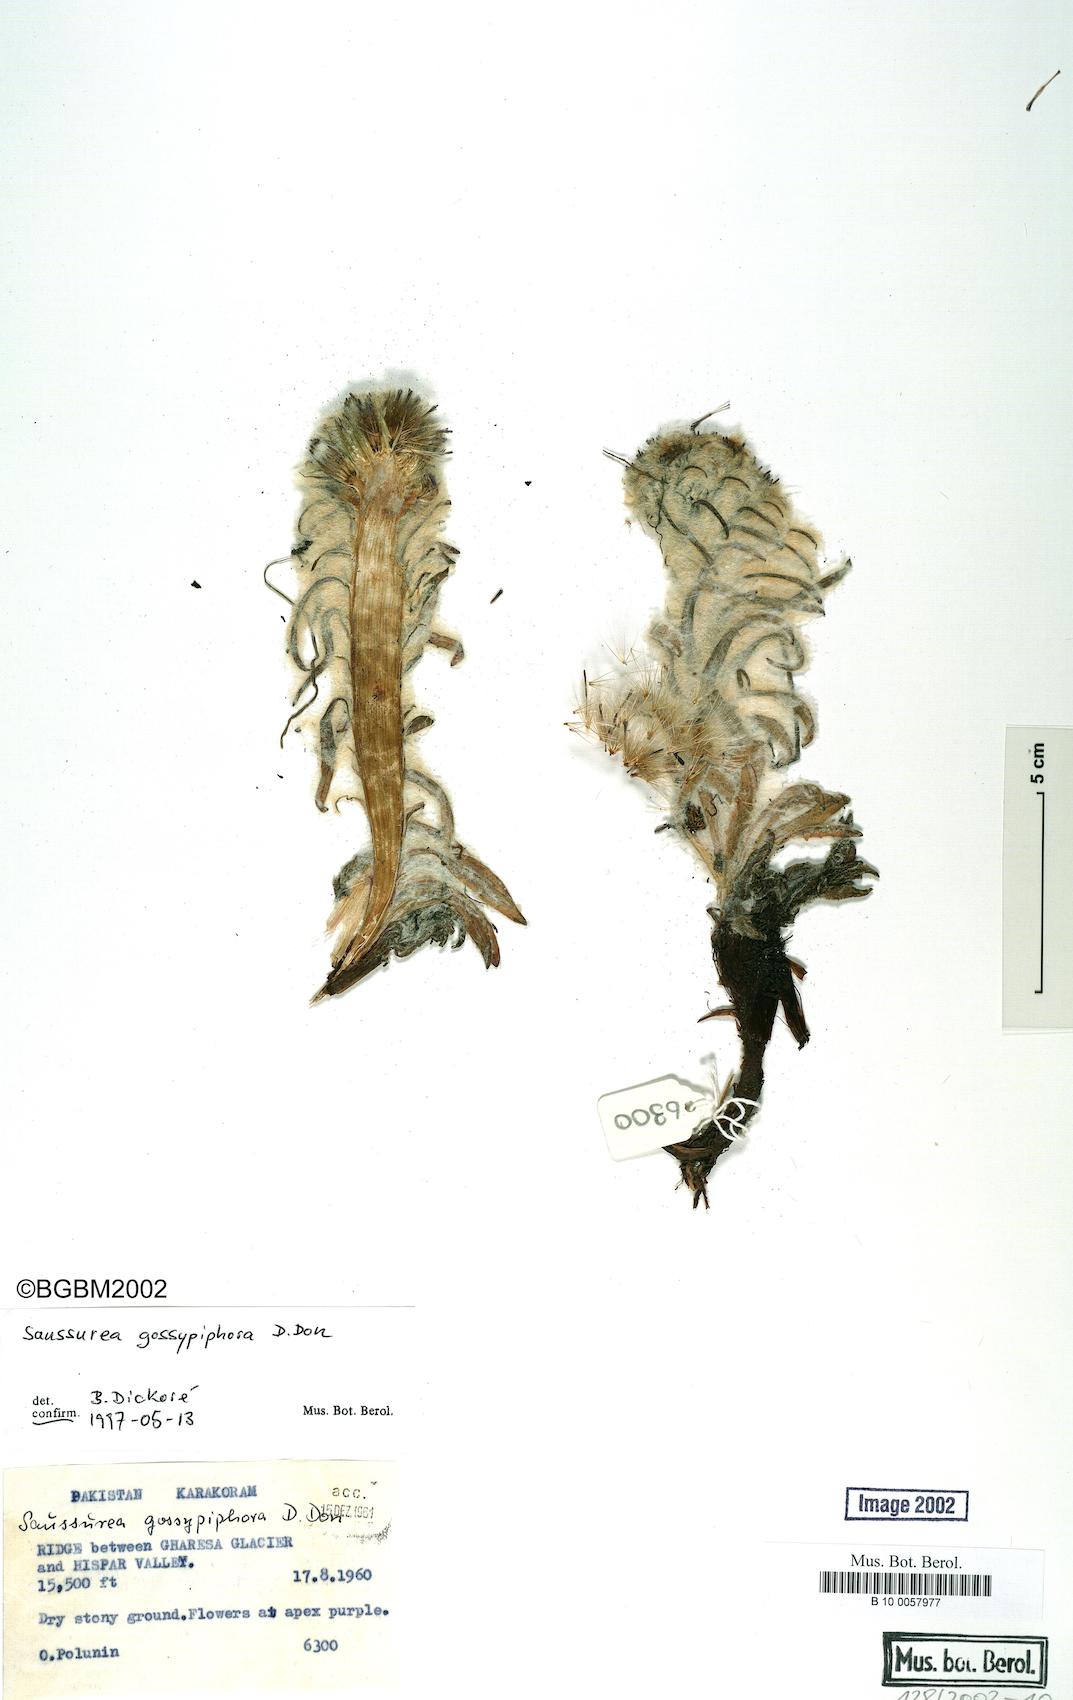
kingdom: Plantae
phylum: Tracheophyta
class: Magnoliopsida
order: Asterales
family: Asteraceae
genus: Saussurea
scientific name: Saussurea gossypiphora
